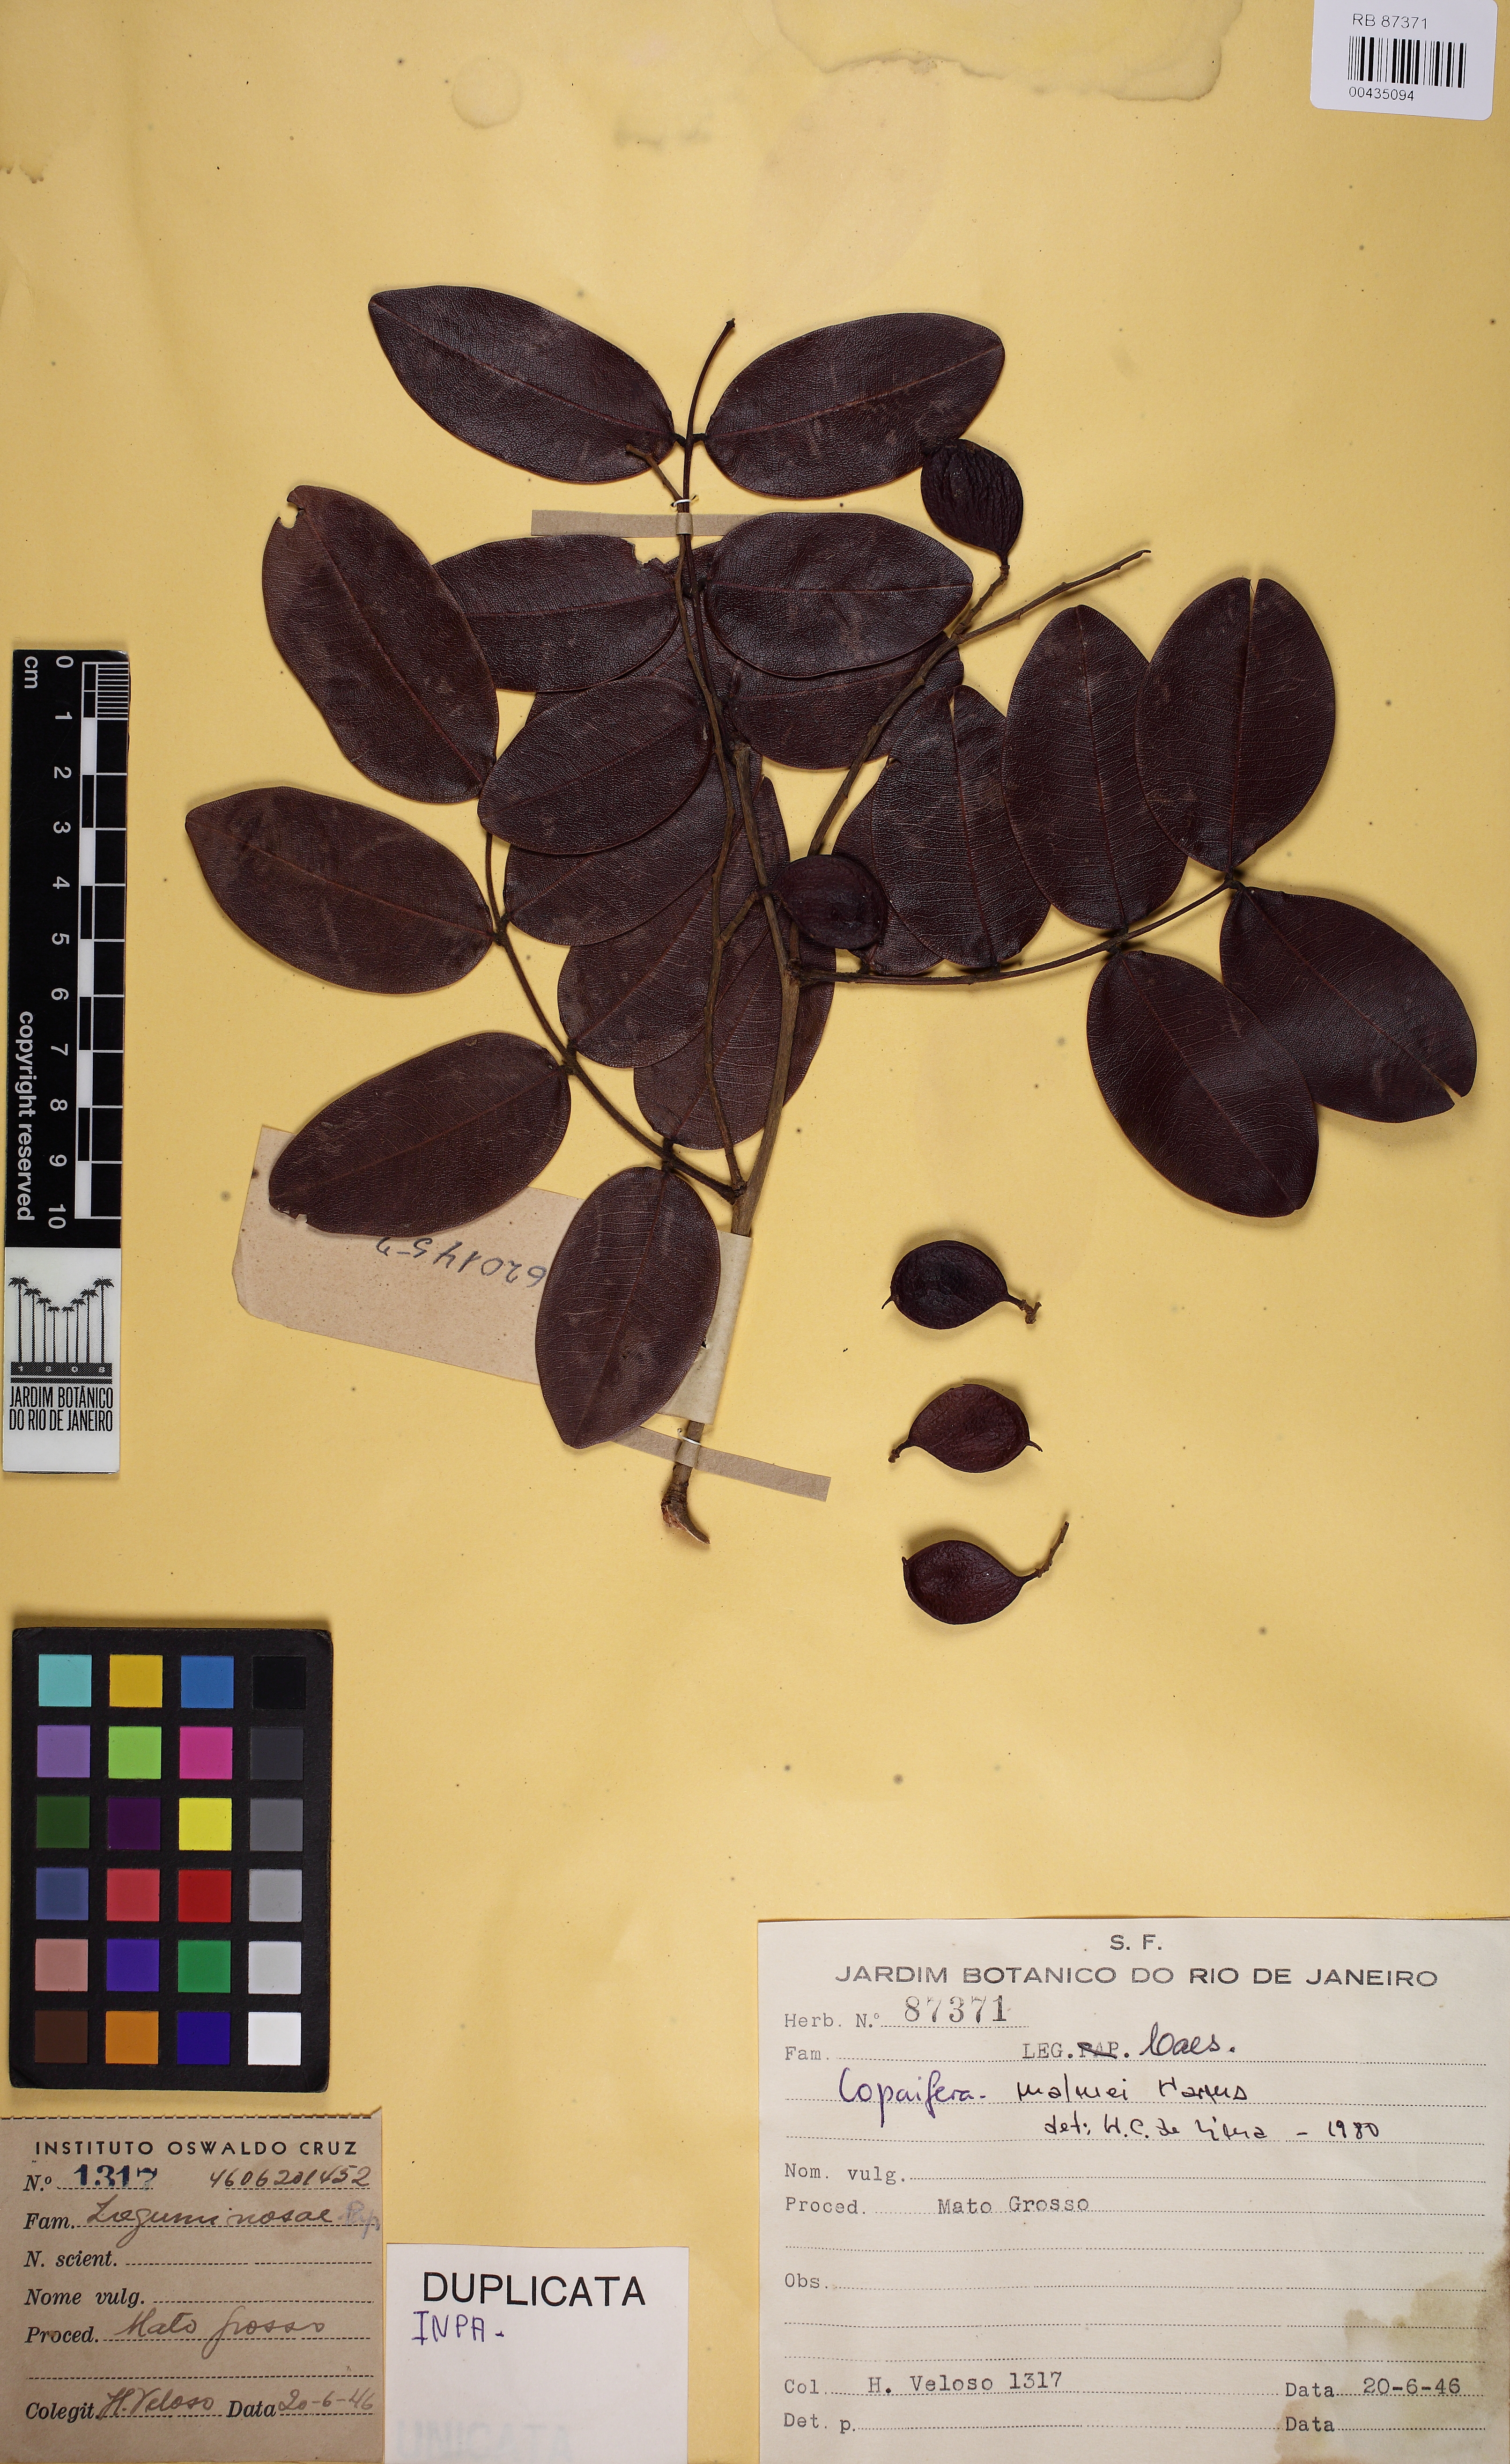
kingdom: Plantae
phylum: Tracheophyta
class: Magnoliopsida
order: Fabales
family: Fabaceae
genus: Copaifera
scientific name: Copaifera malmei
